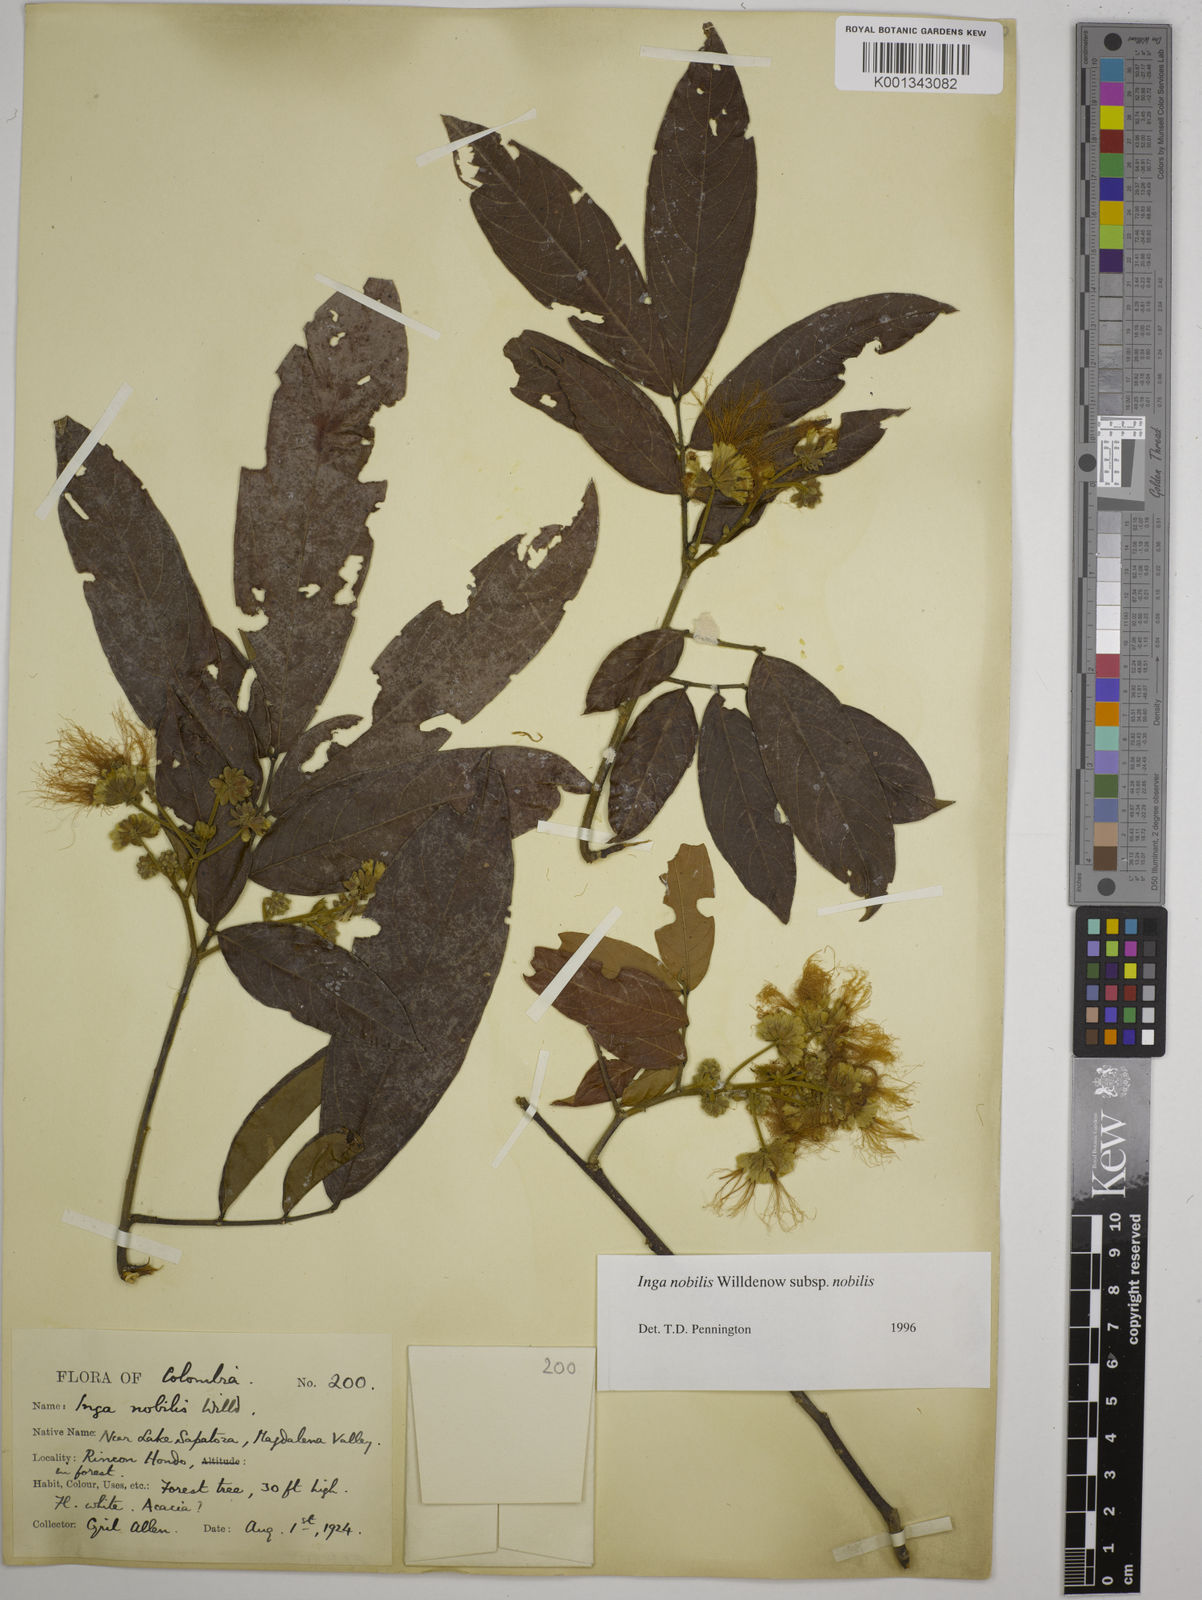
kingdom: Plantae
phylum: Tracheophyta
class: Magnoliopsida
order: Fabales
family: Fabaceae
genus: Inga
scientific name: Inga nobilis
